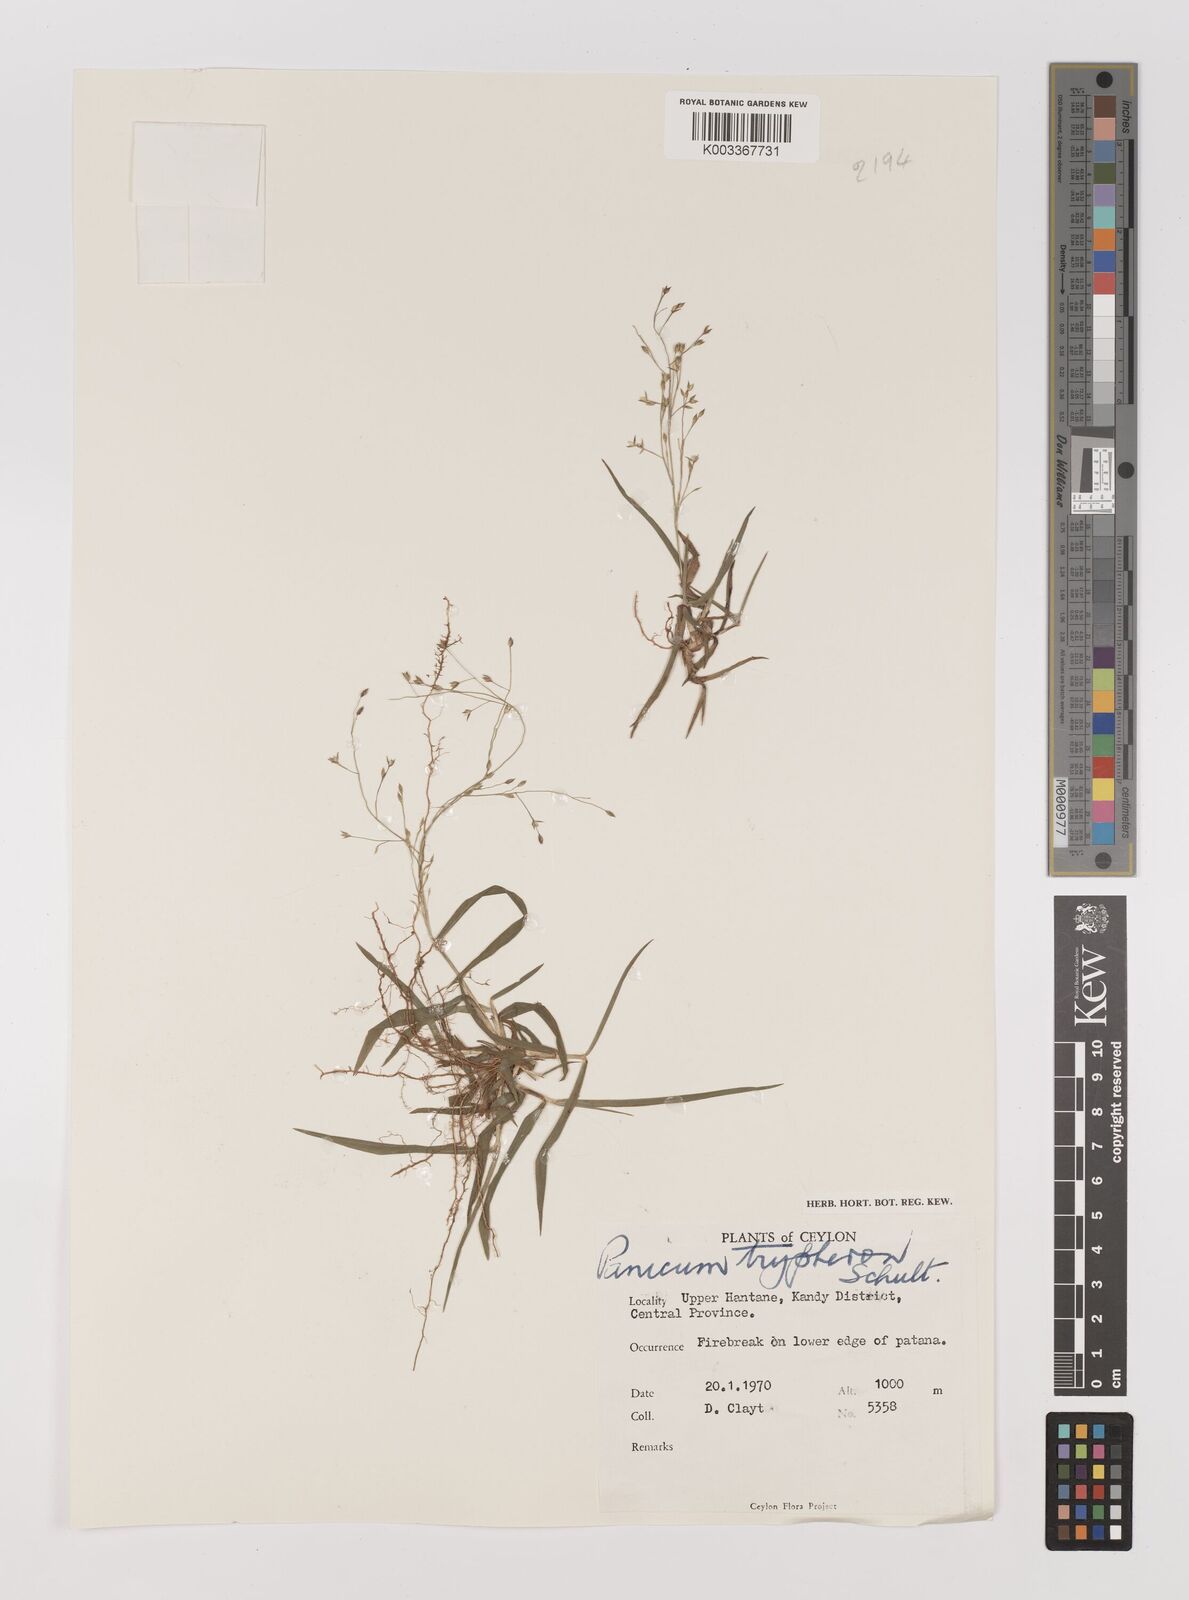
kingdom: Plantae
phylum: Tracheophyta
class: Liliopsida
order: Poales
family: Poaceae
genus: Panicum
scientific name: Panicum curviflorum
